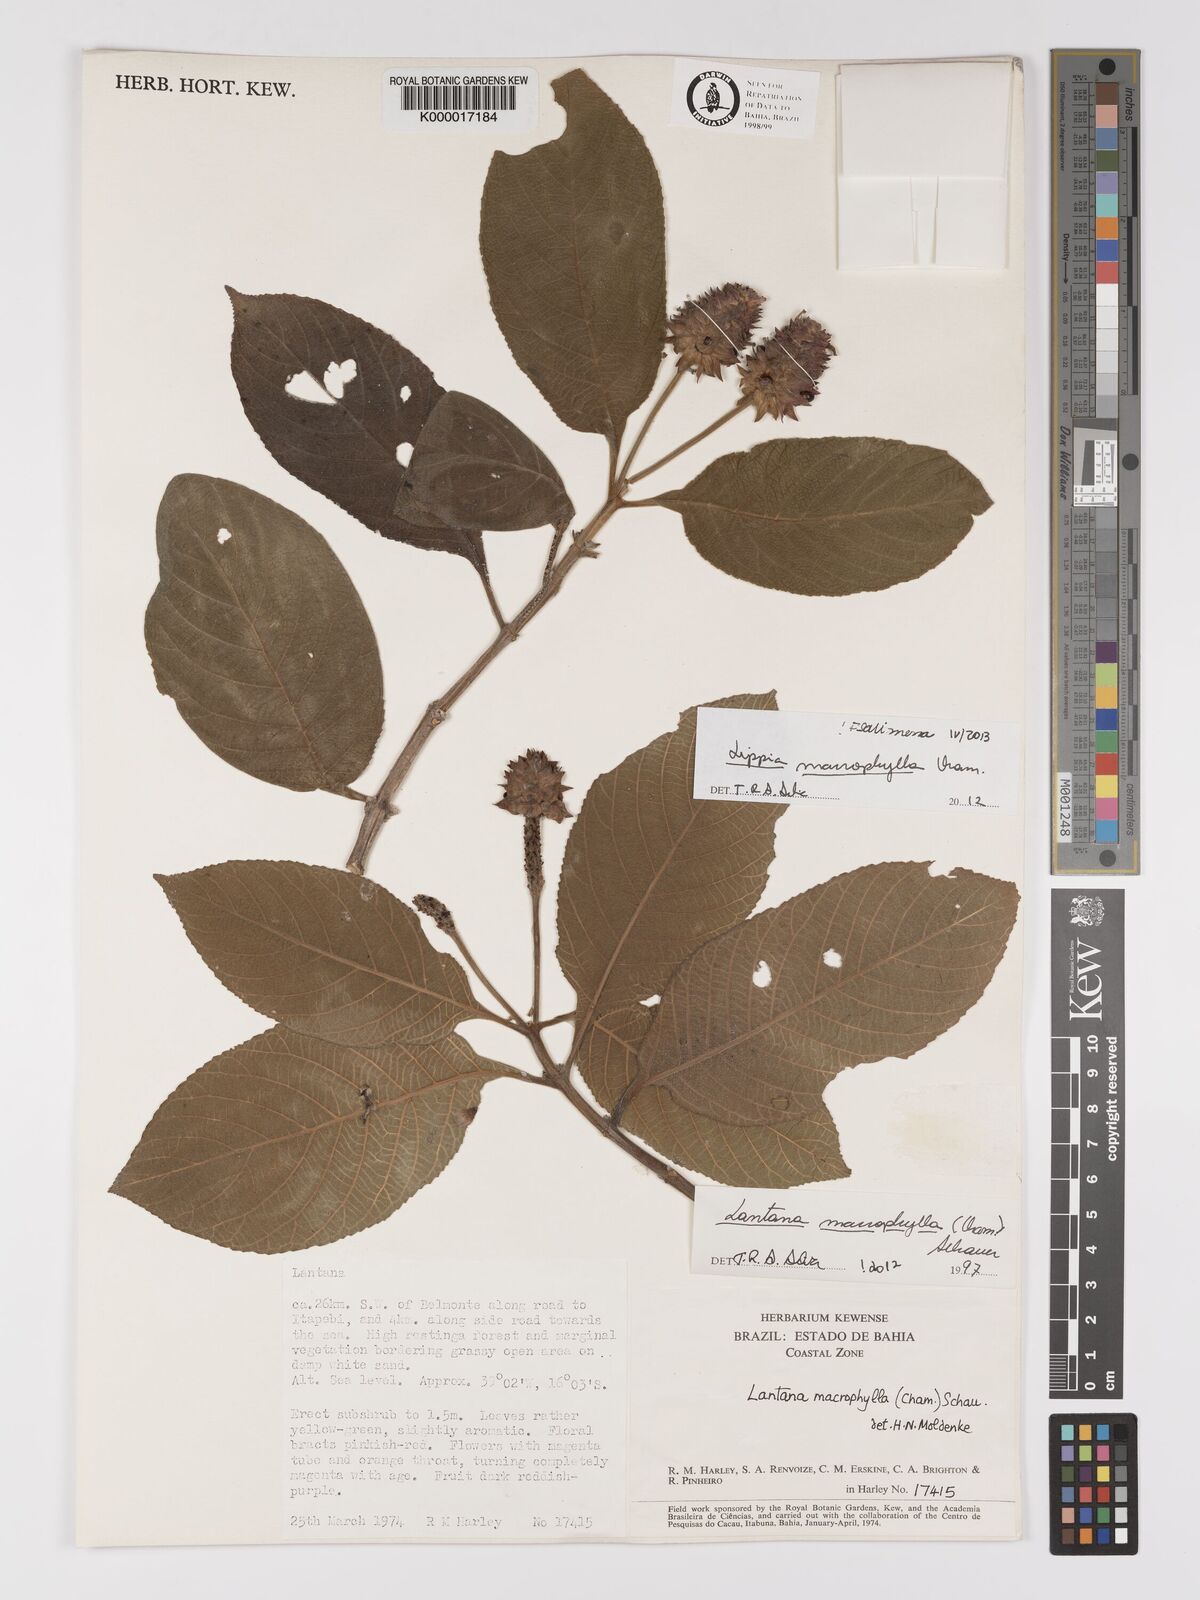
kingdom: Plantae
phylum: Tracheophyta
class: Magnoliopsida
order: Lamiales
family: Verbenaceae
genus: Lippia
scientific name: Lippia macrophylla
